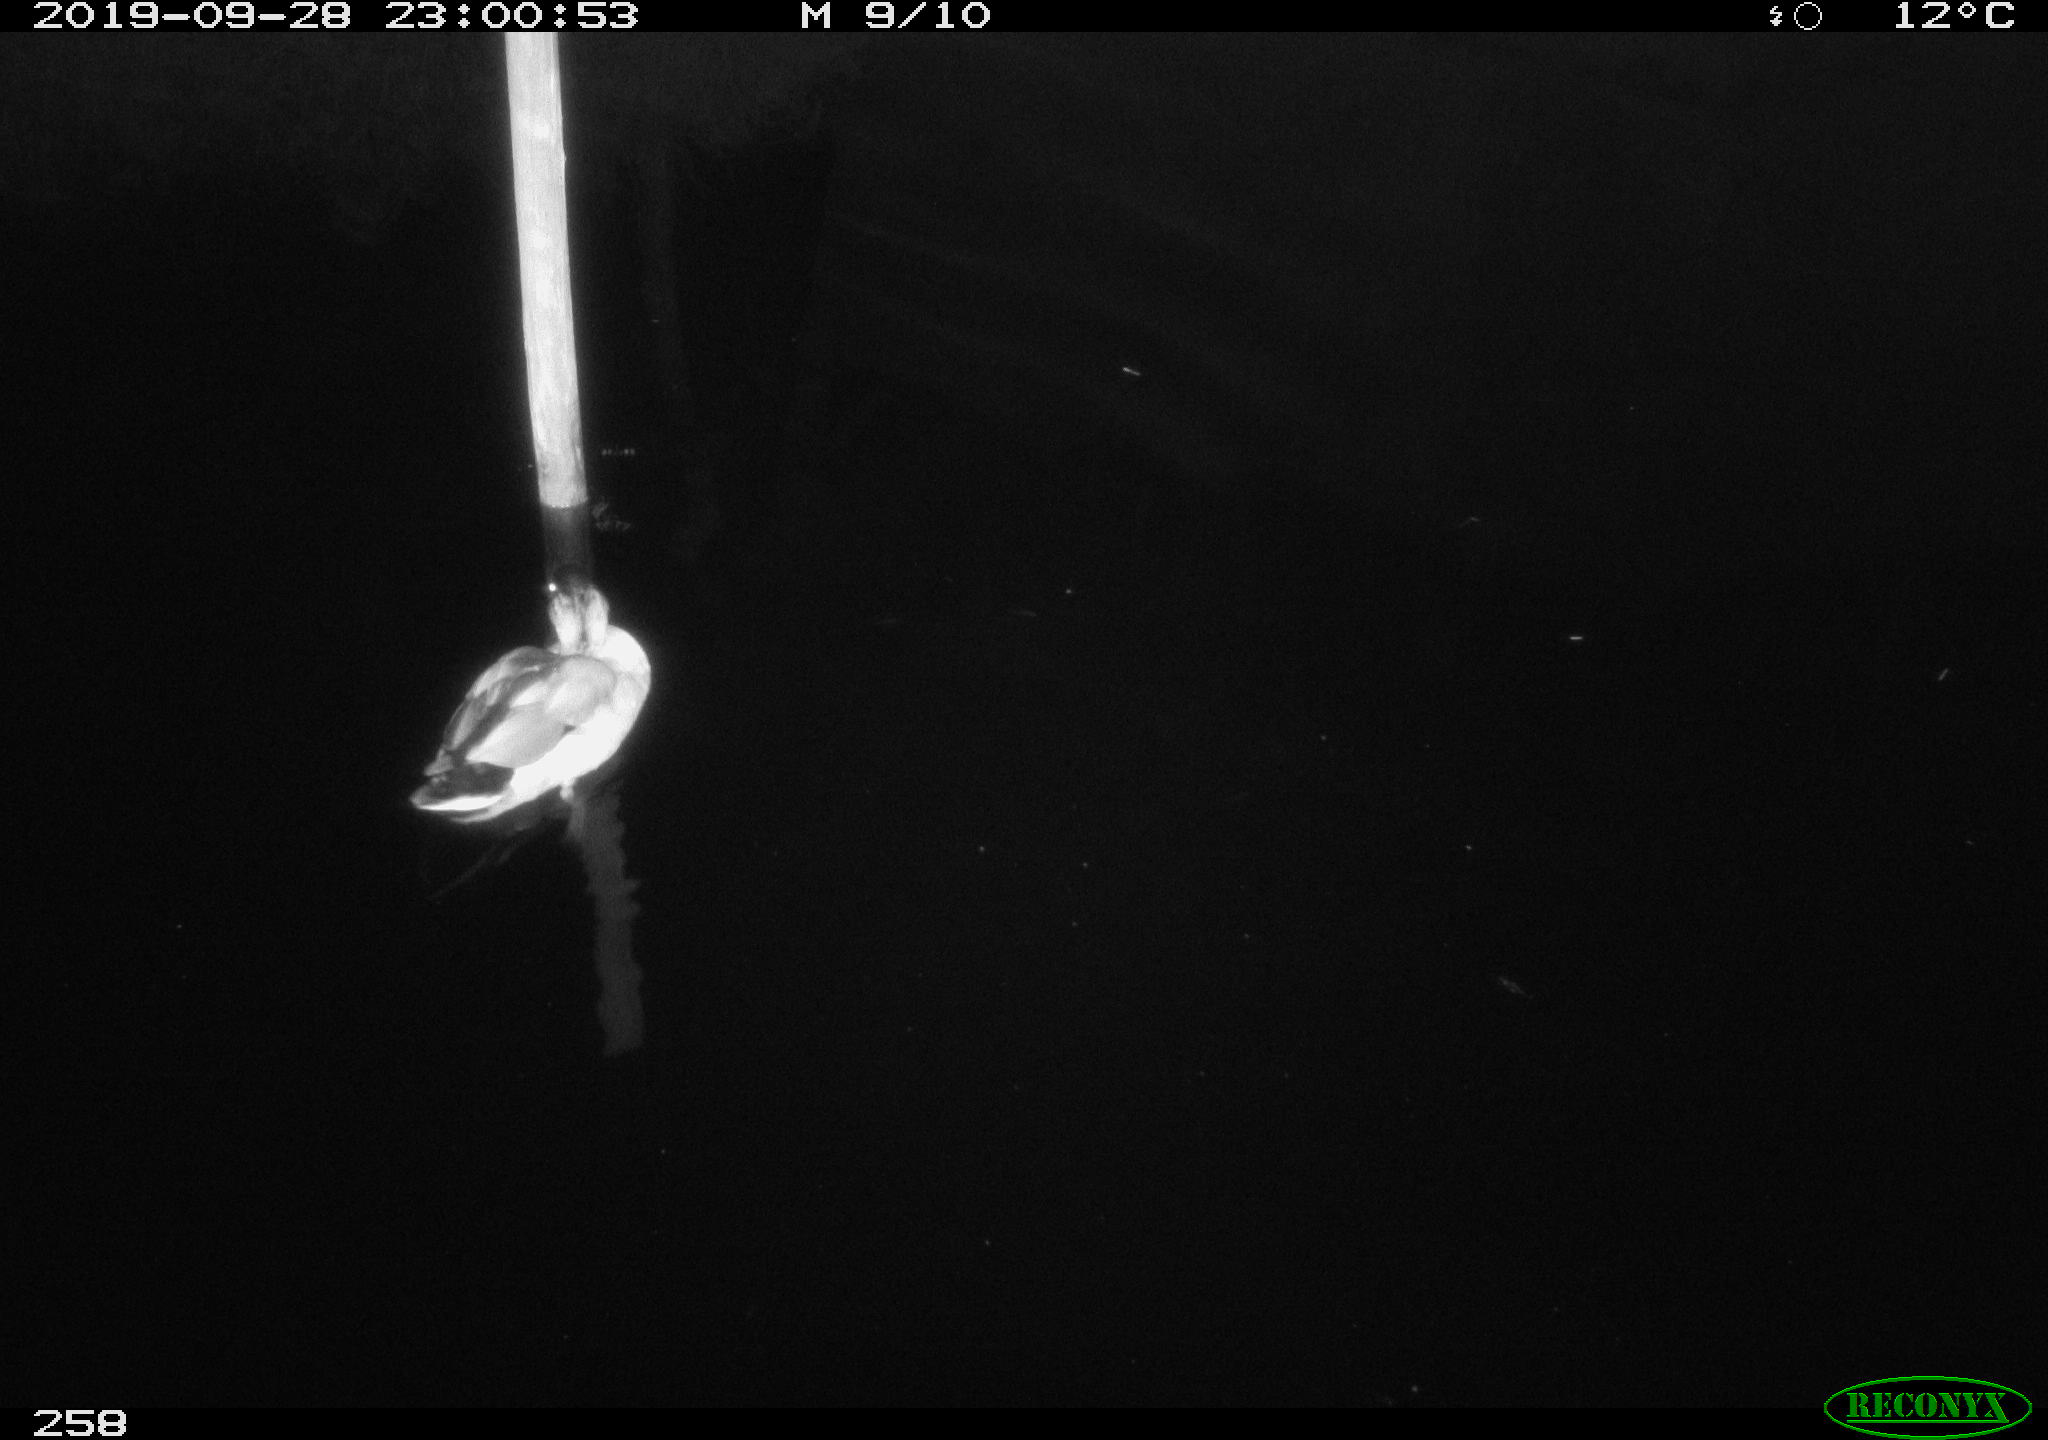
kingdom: Animalia
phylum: Chordata
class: Aves
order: Anseriformes
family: Anatidae
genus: Anas
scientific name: Anas platyrhynchos
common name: Mallard
